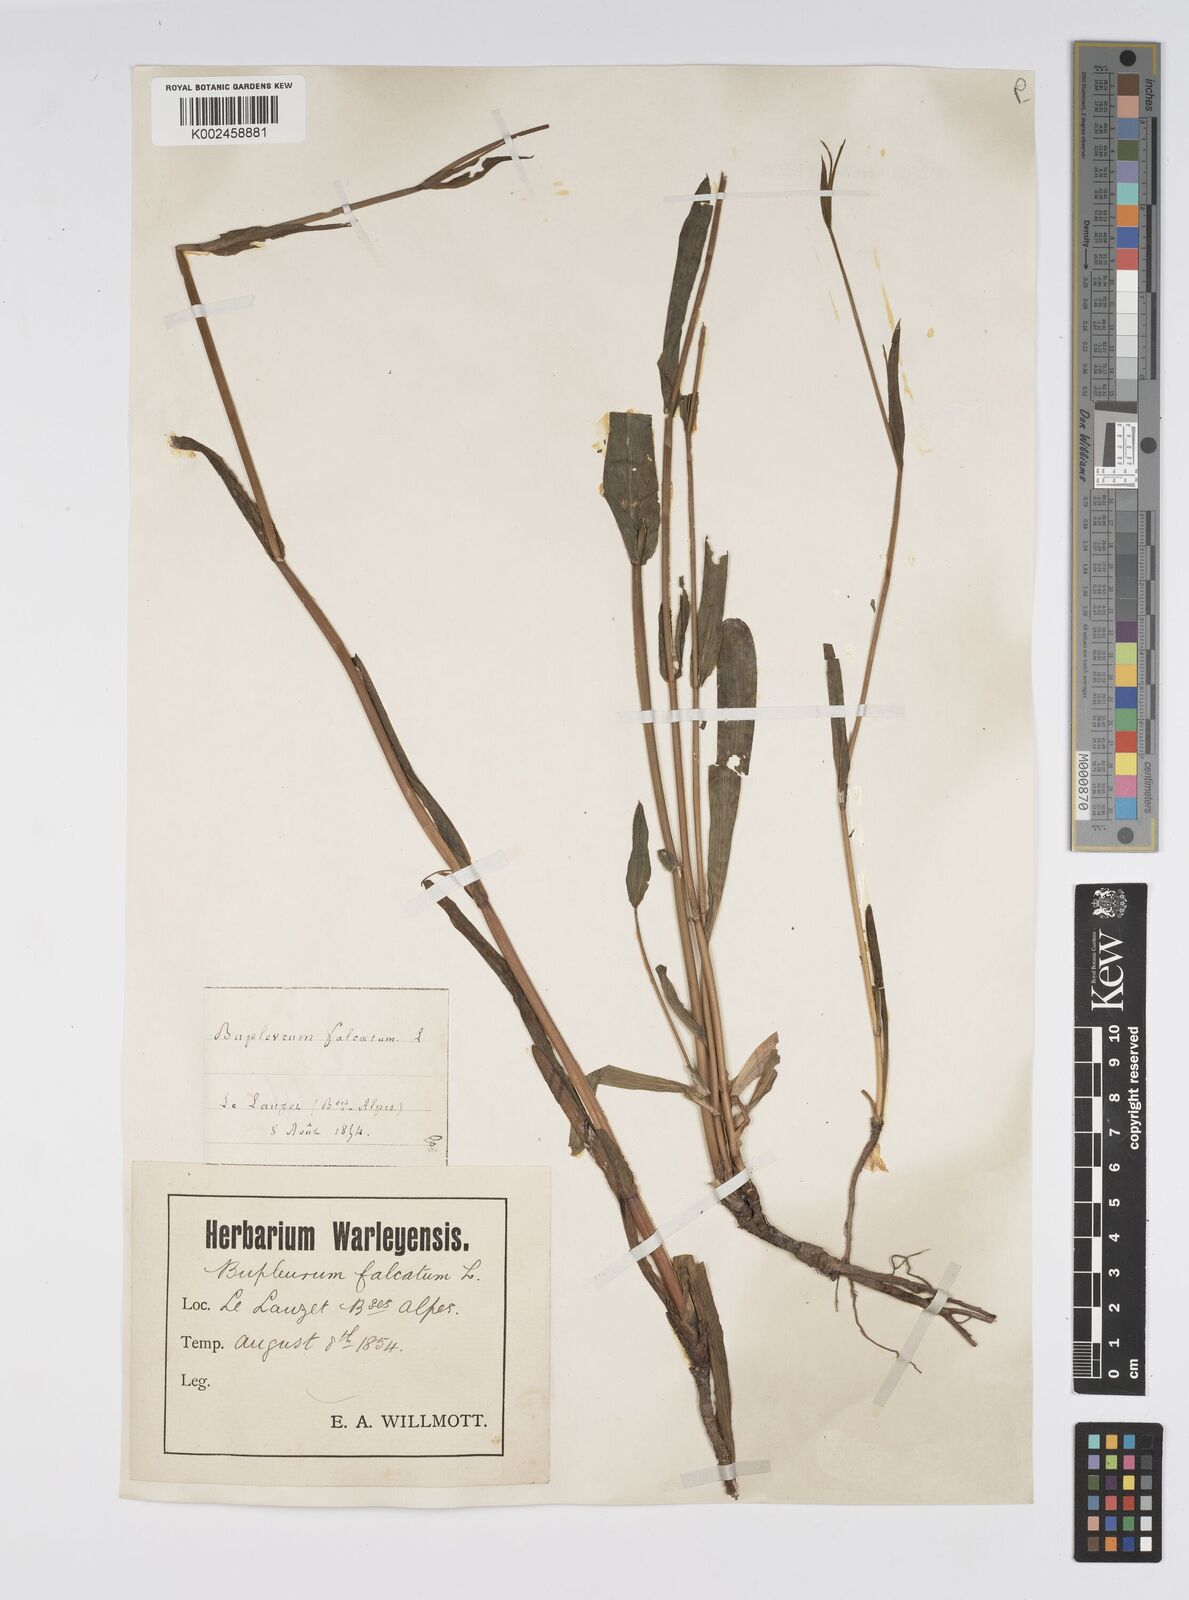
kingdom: Plantae
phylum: Tracheophyta
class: Magnoliopsida
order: Apiales
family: Apiaceae
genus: Bupleurum
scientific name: Bupleurum falcatum
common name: Sickle-leaved hare's-ear
